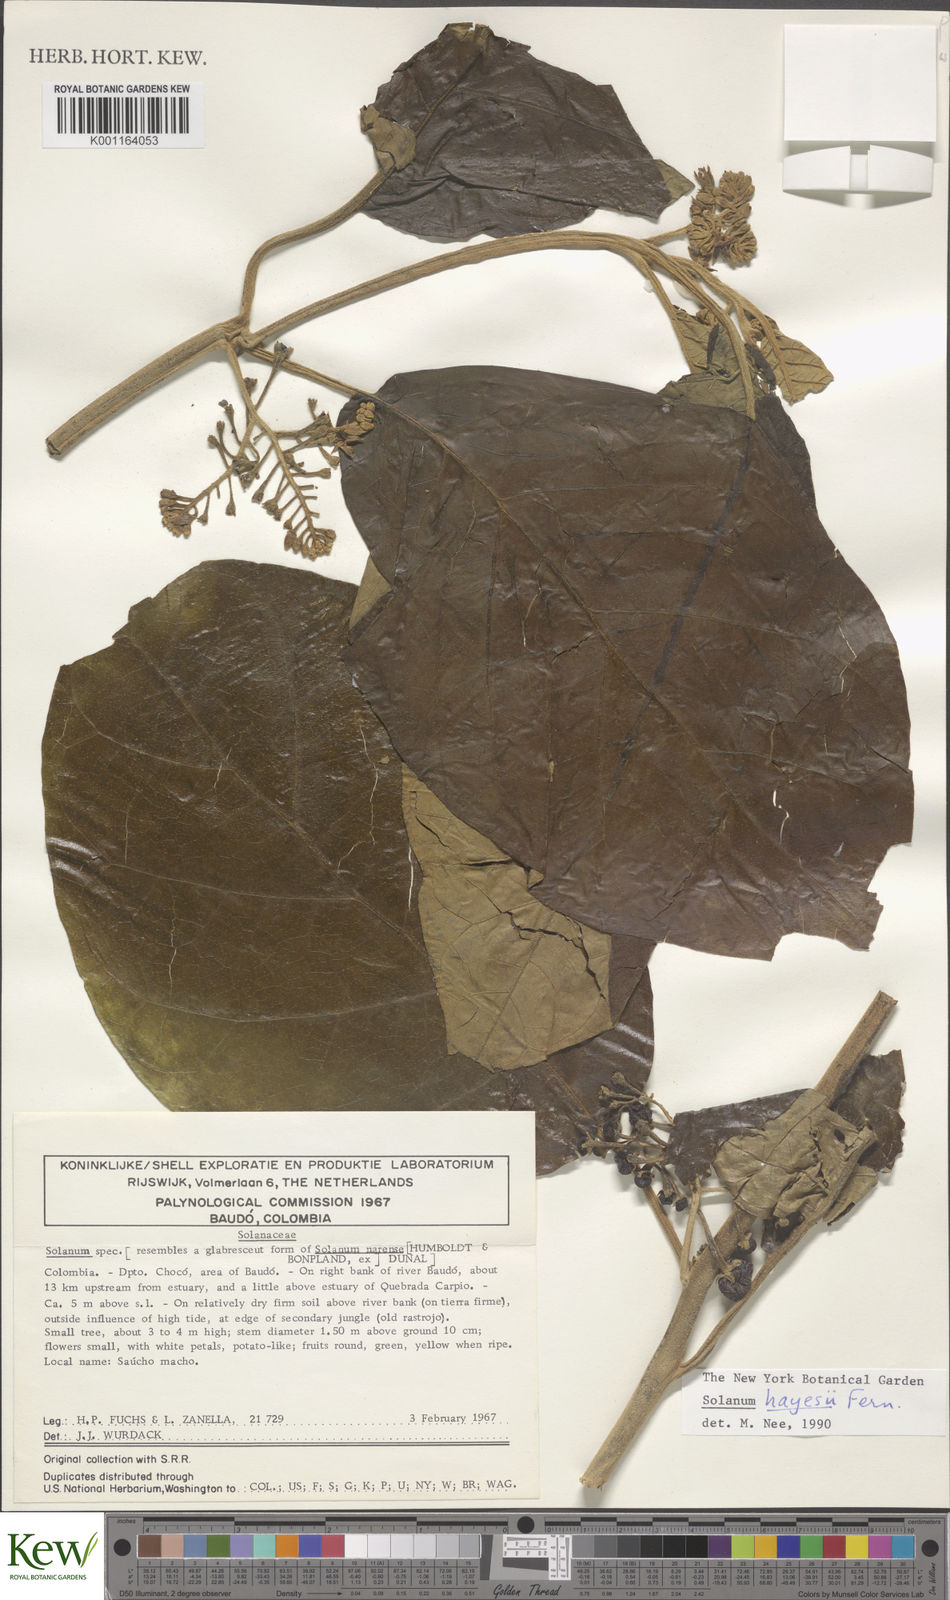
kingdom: Plantae
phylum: Tracheophyta
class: Magnoliopsida
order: Solanales
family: Solanaceae
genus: Solanum
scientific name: Solanum hayesii
